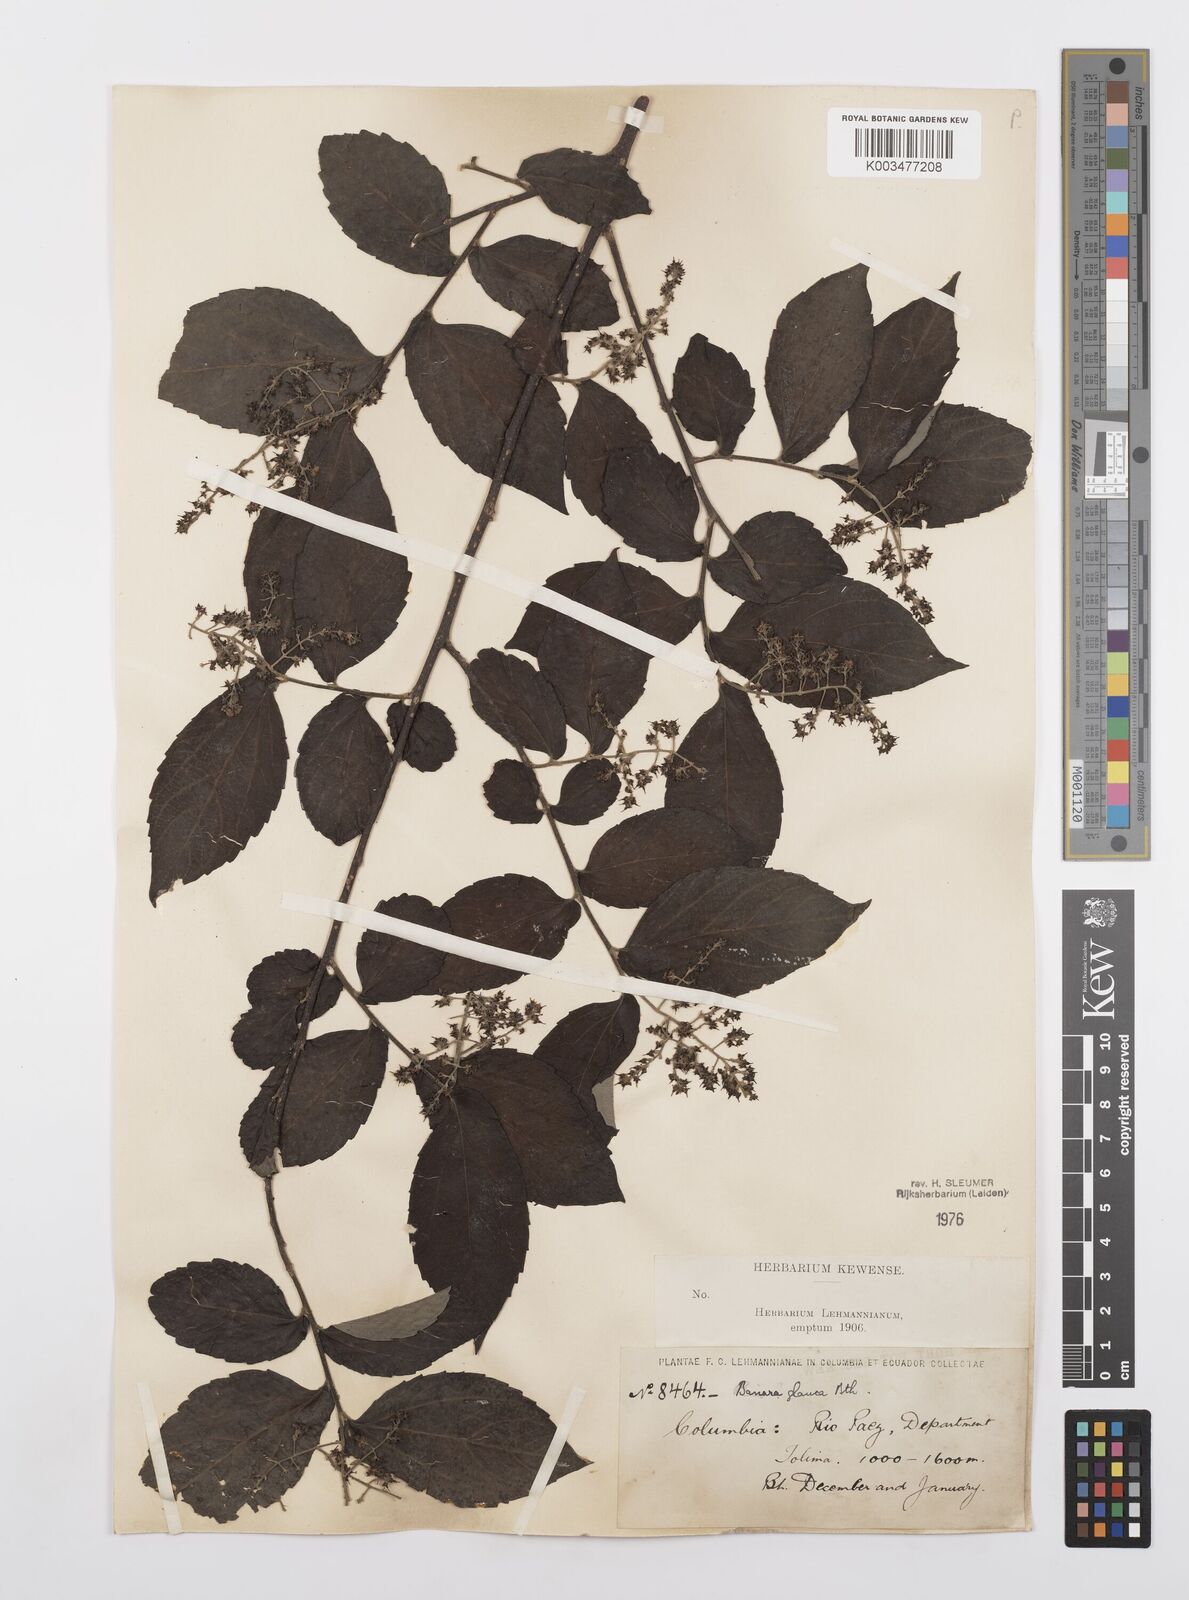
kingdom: Plantae
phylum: Tracheophyta
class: Magnoliopsida
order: Malpighiales
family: Salicaceae
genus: Banara
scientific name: Banara glauca
